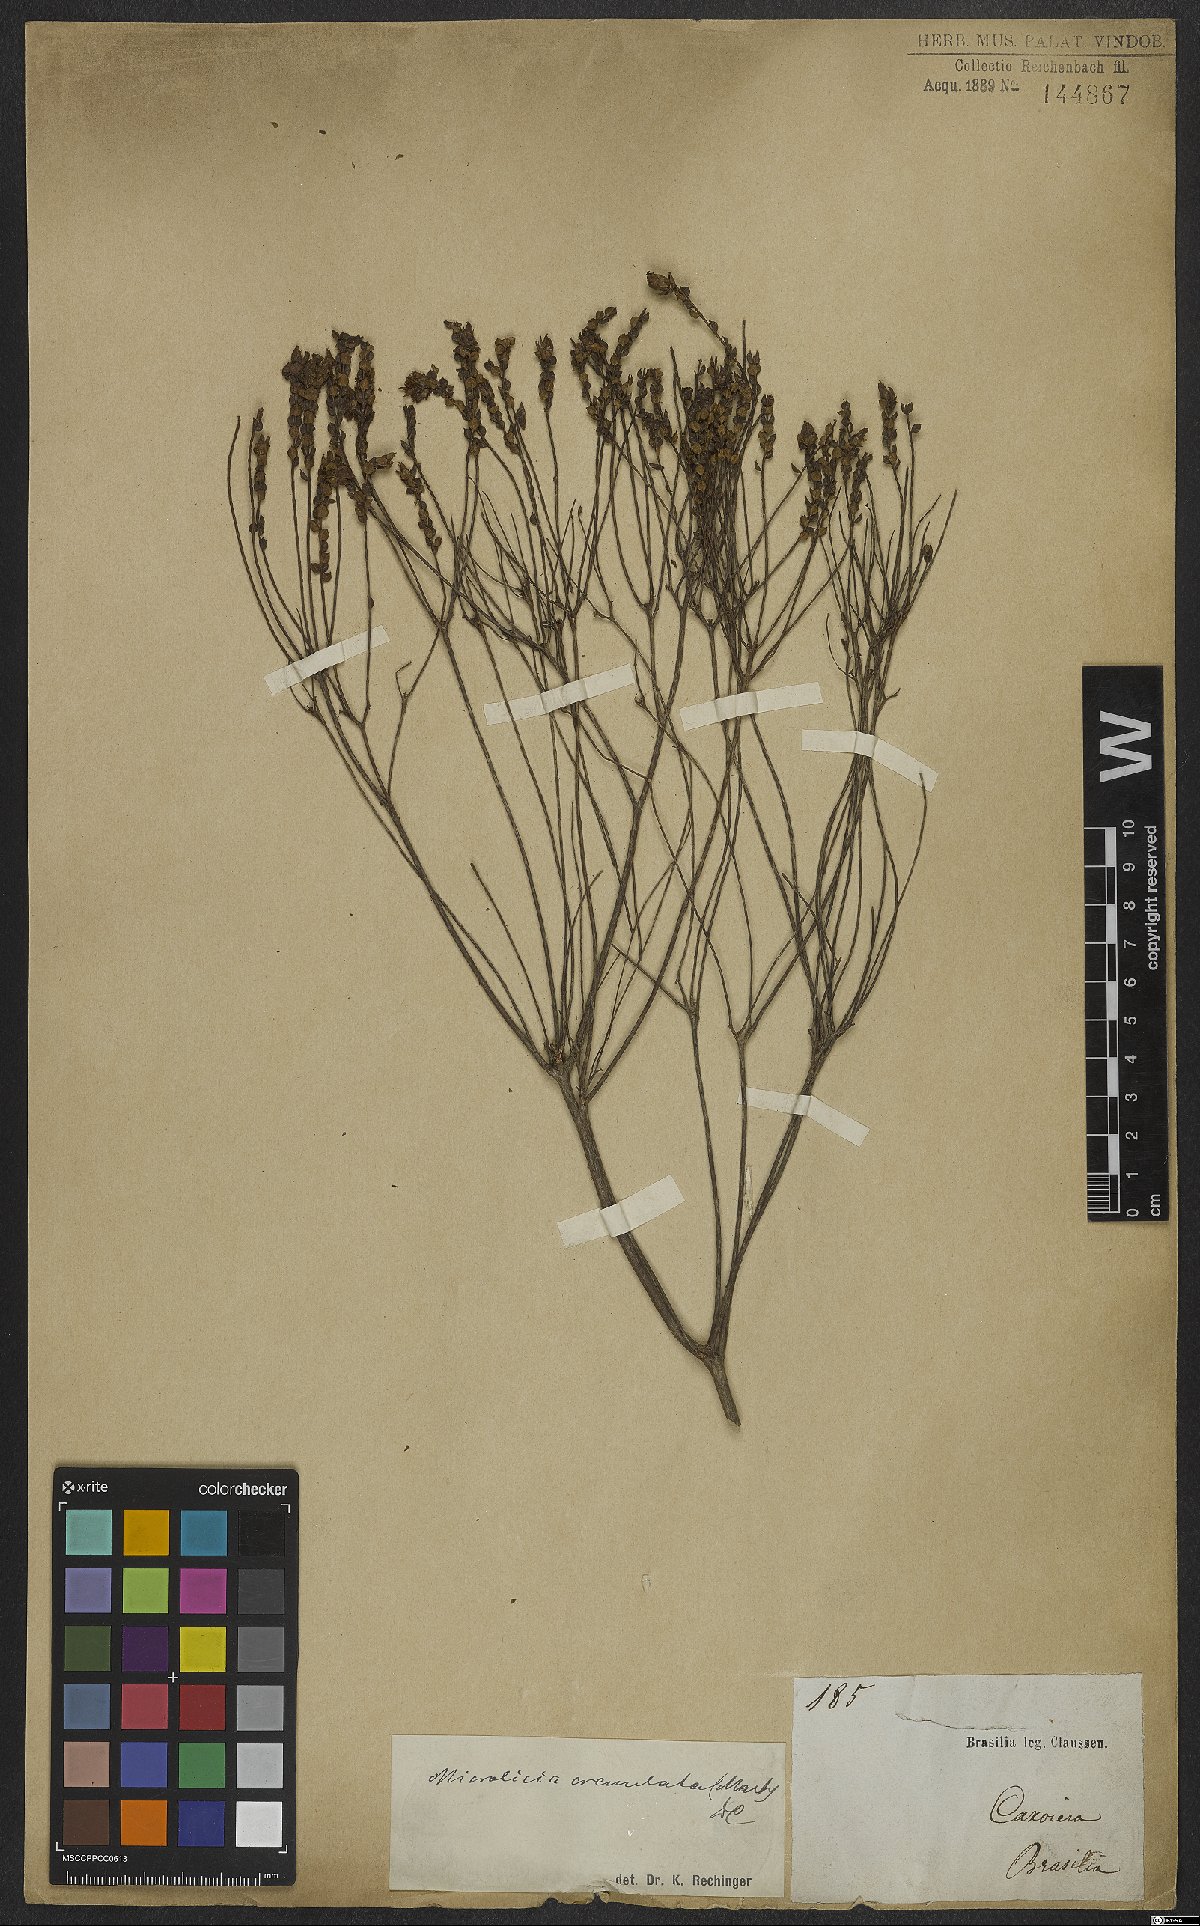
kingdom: Plantae
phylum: Tracheophyta
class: Magnoliopsida
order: Myrtales
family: Melastomataceae
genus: Microlicia
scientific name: Microlicia crenulata
